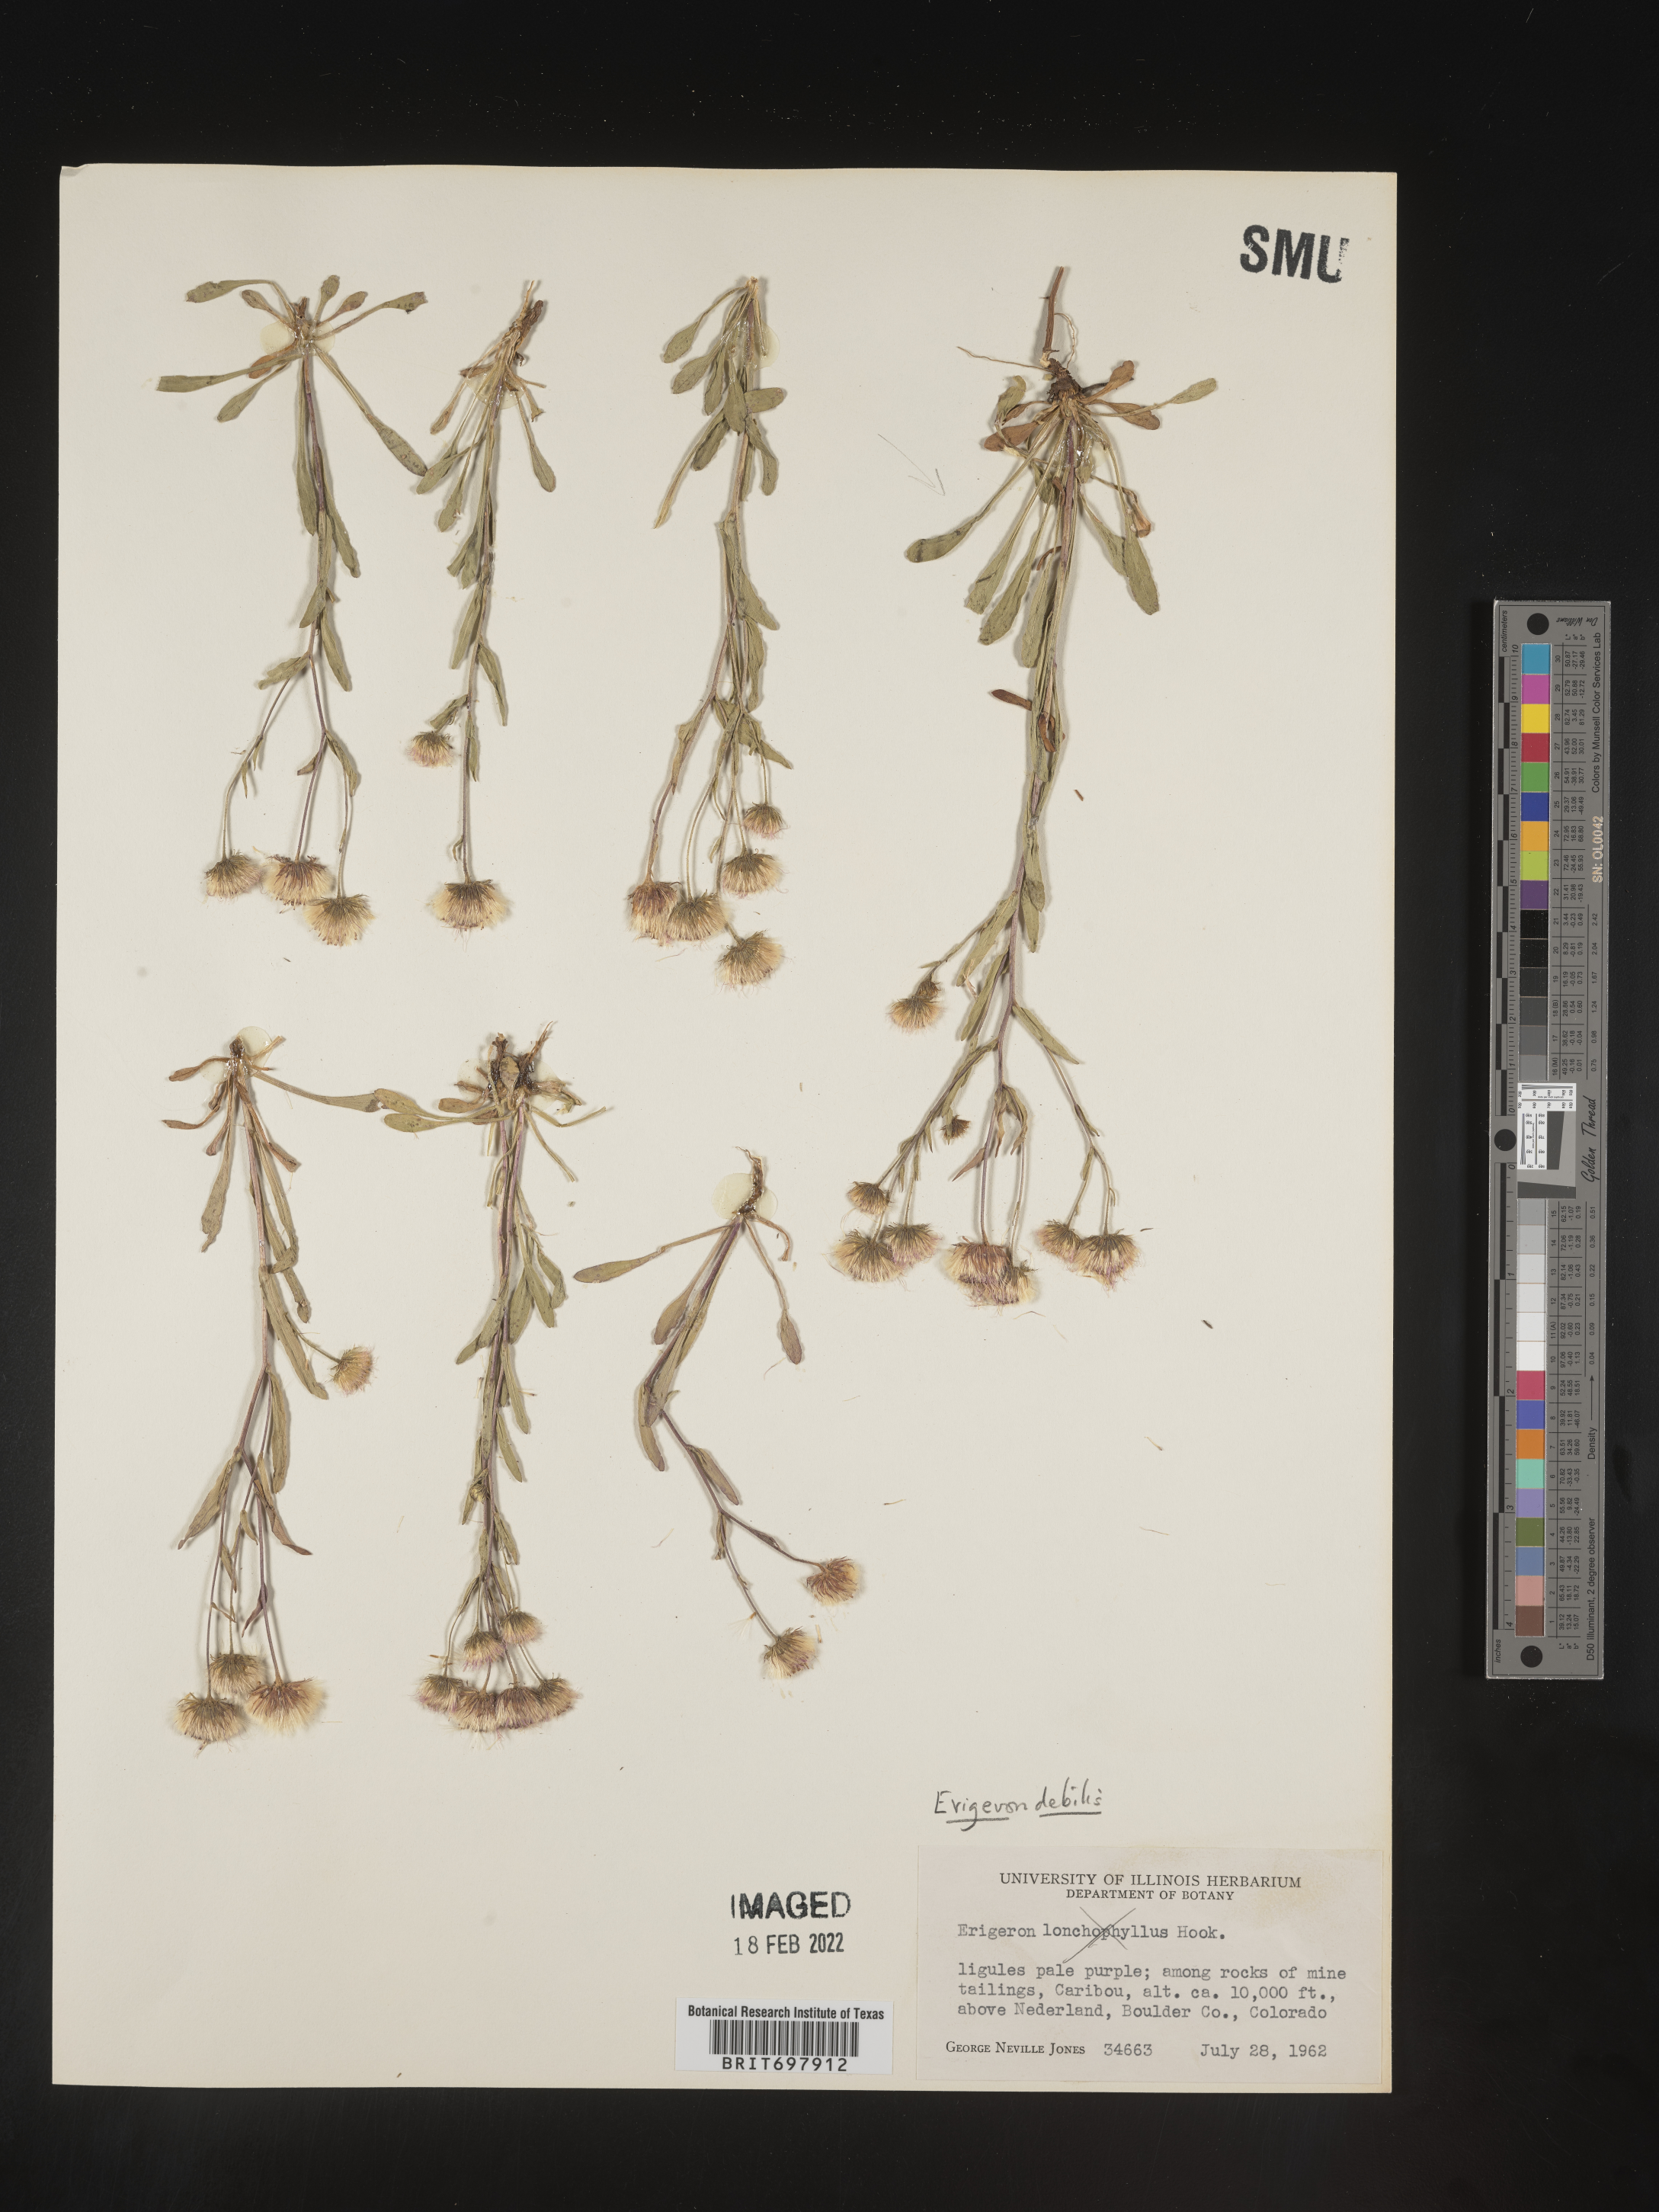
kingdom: Plantae
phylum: Tracheophyta
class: Magnoliopsida
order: Asterales
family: Asteraceae
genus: Erigeron
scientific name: Erigeron nivalis
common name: Snow fleabane
